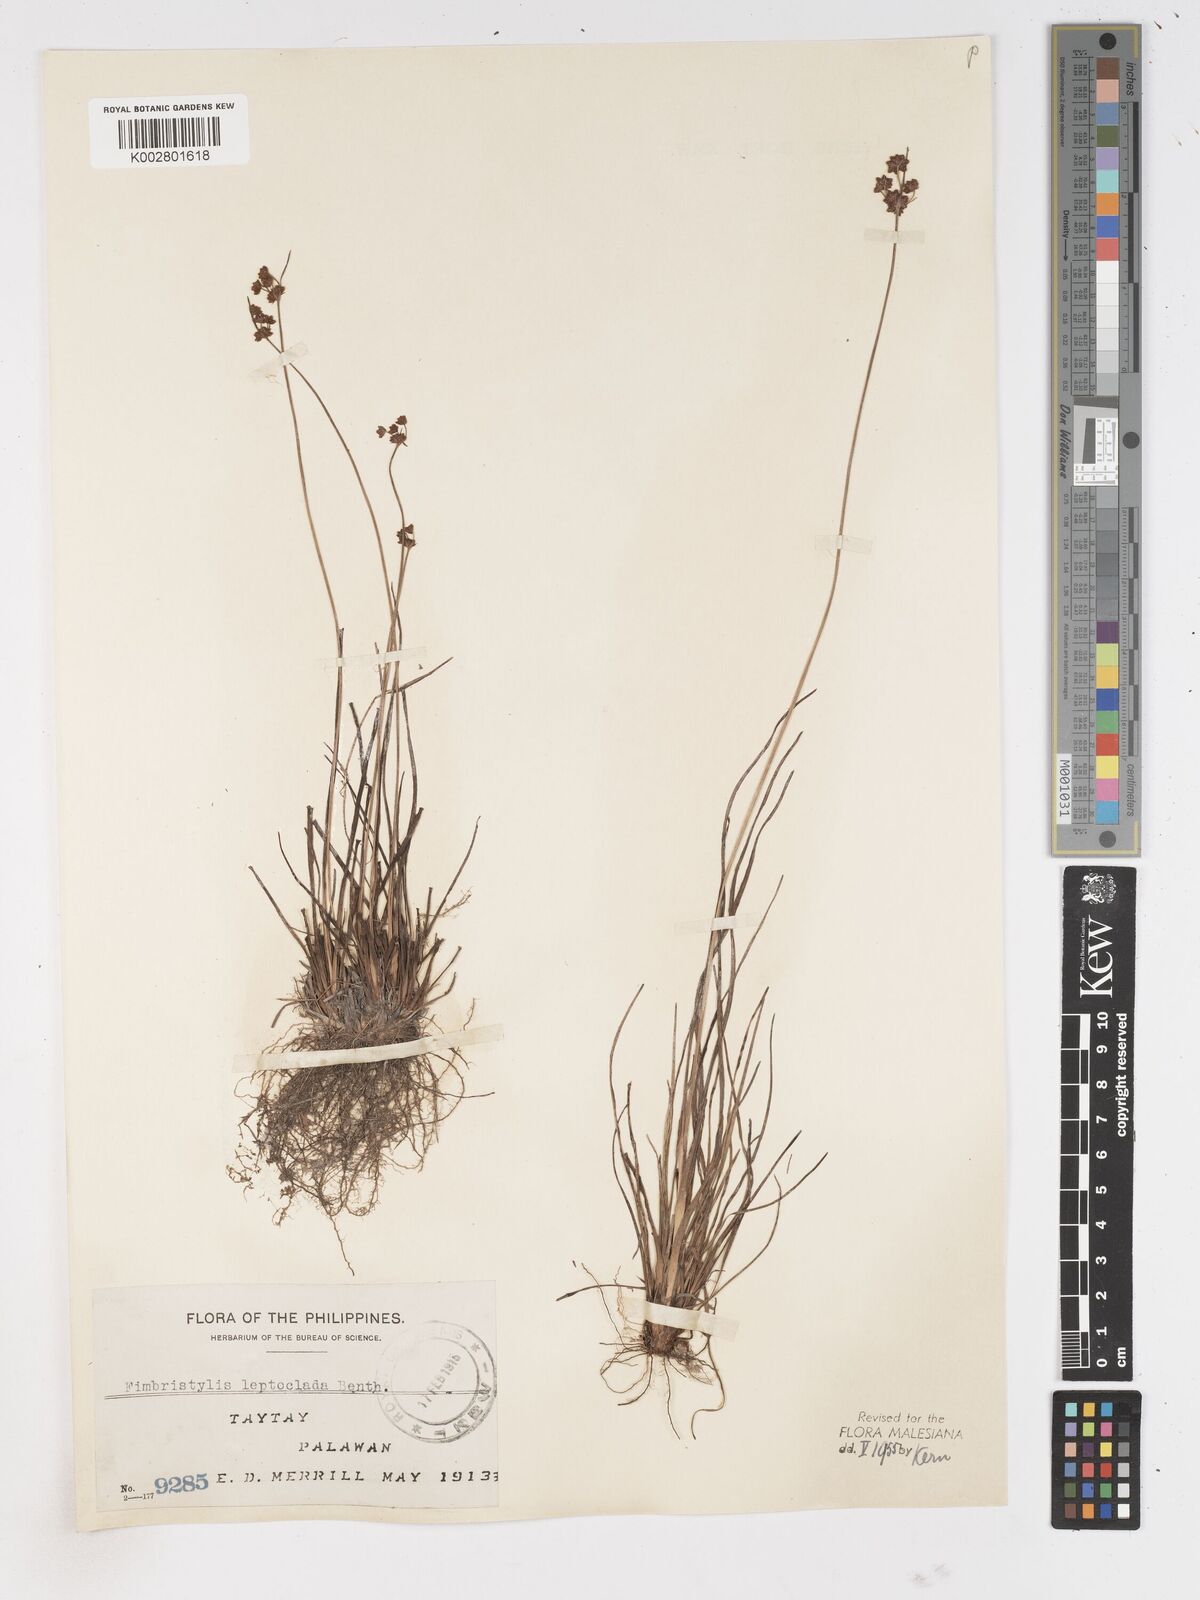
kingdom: Plantae
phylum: Tracheophyta
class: Liliopsida
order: Poales
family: Cyperaceae
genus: Fimbristylis
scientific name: Fimbristylis leptoclada
